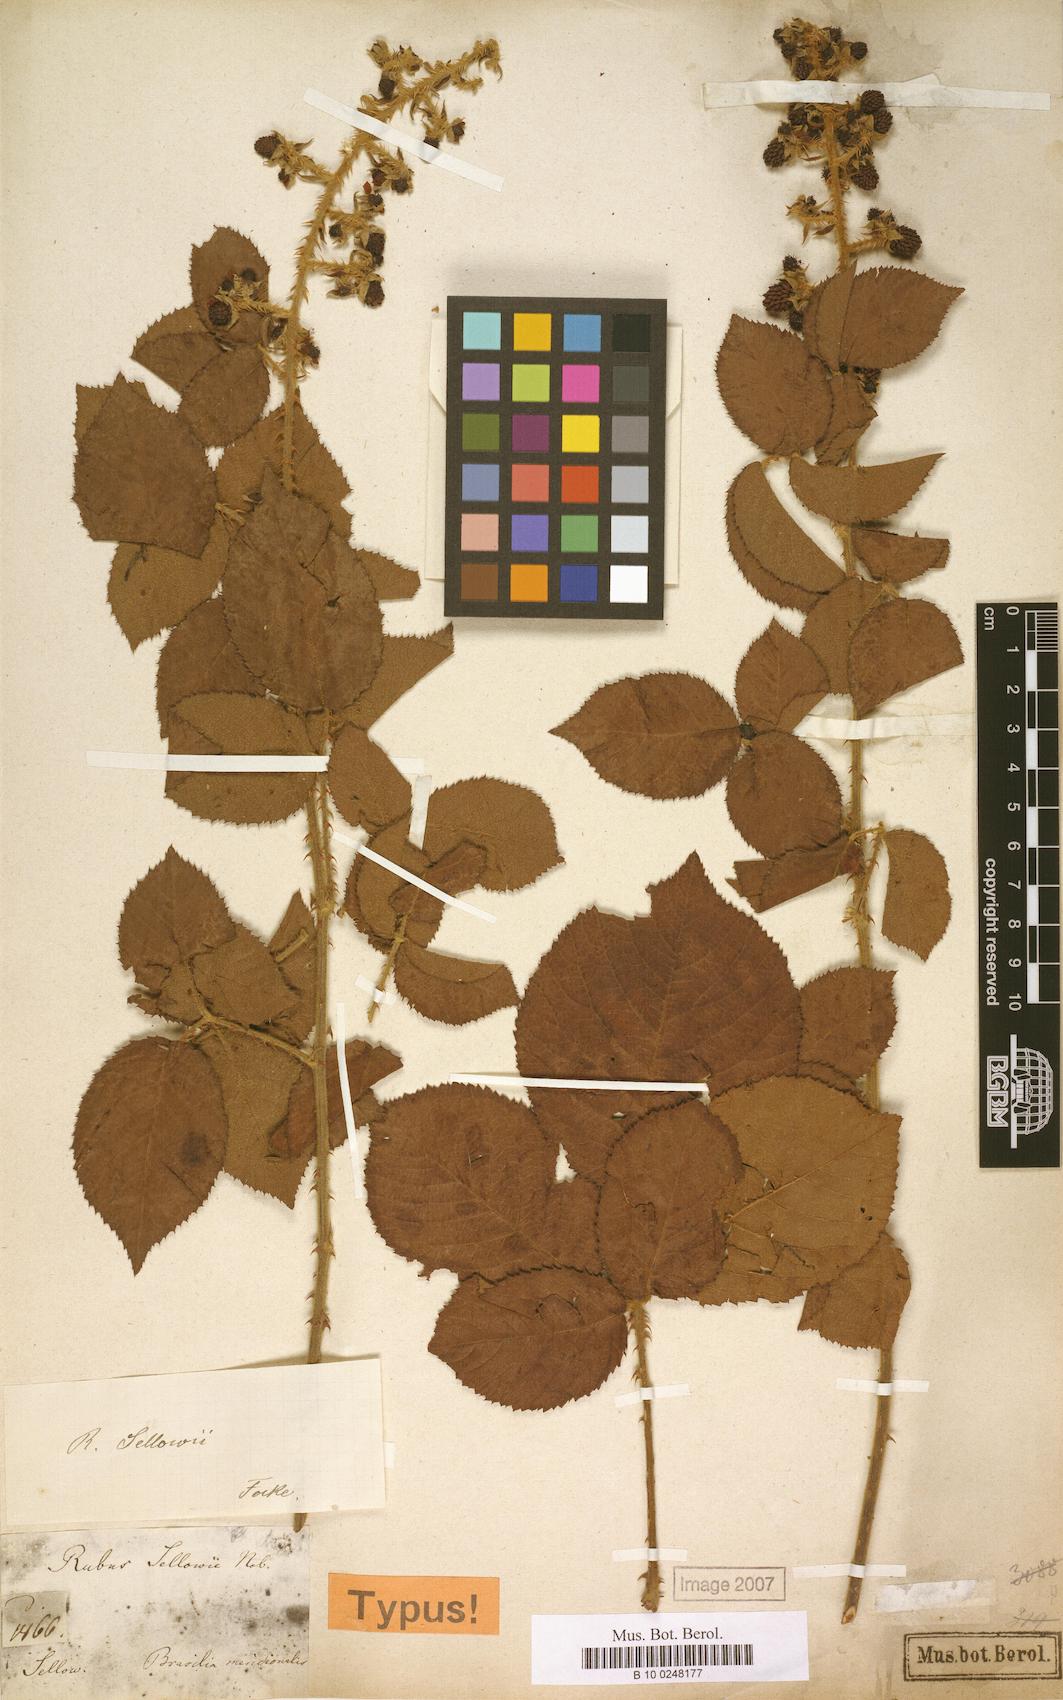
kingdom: Plantae
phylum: Tracheophyta
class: Magnoliopsida
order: Rosales
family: Rosaceae
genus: Rubus
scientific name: Rubus sellowii
